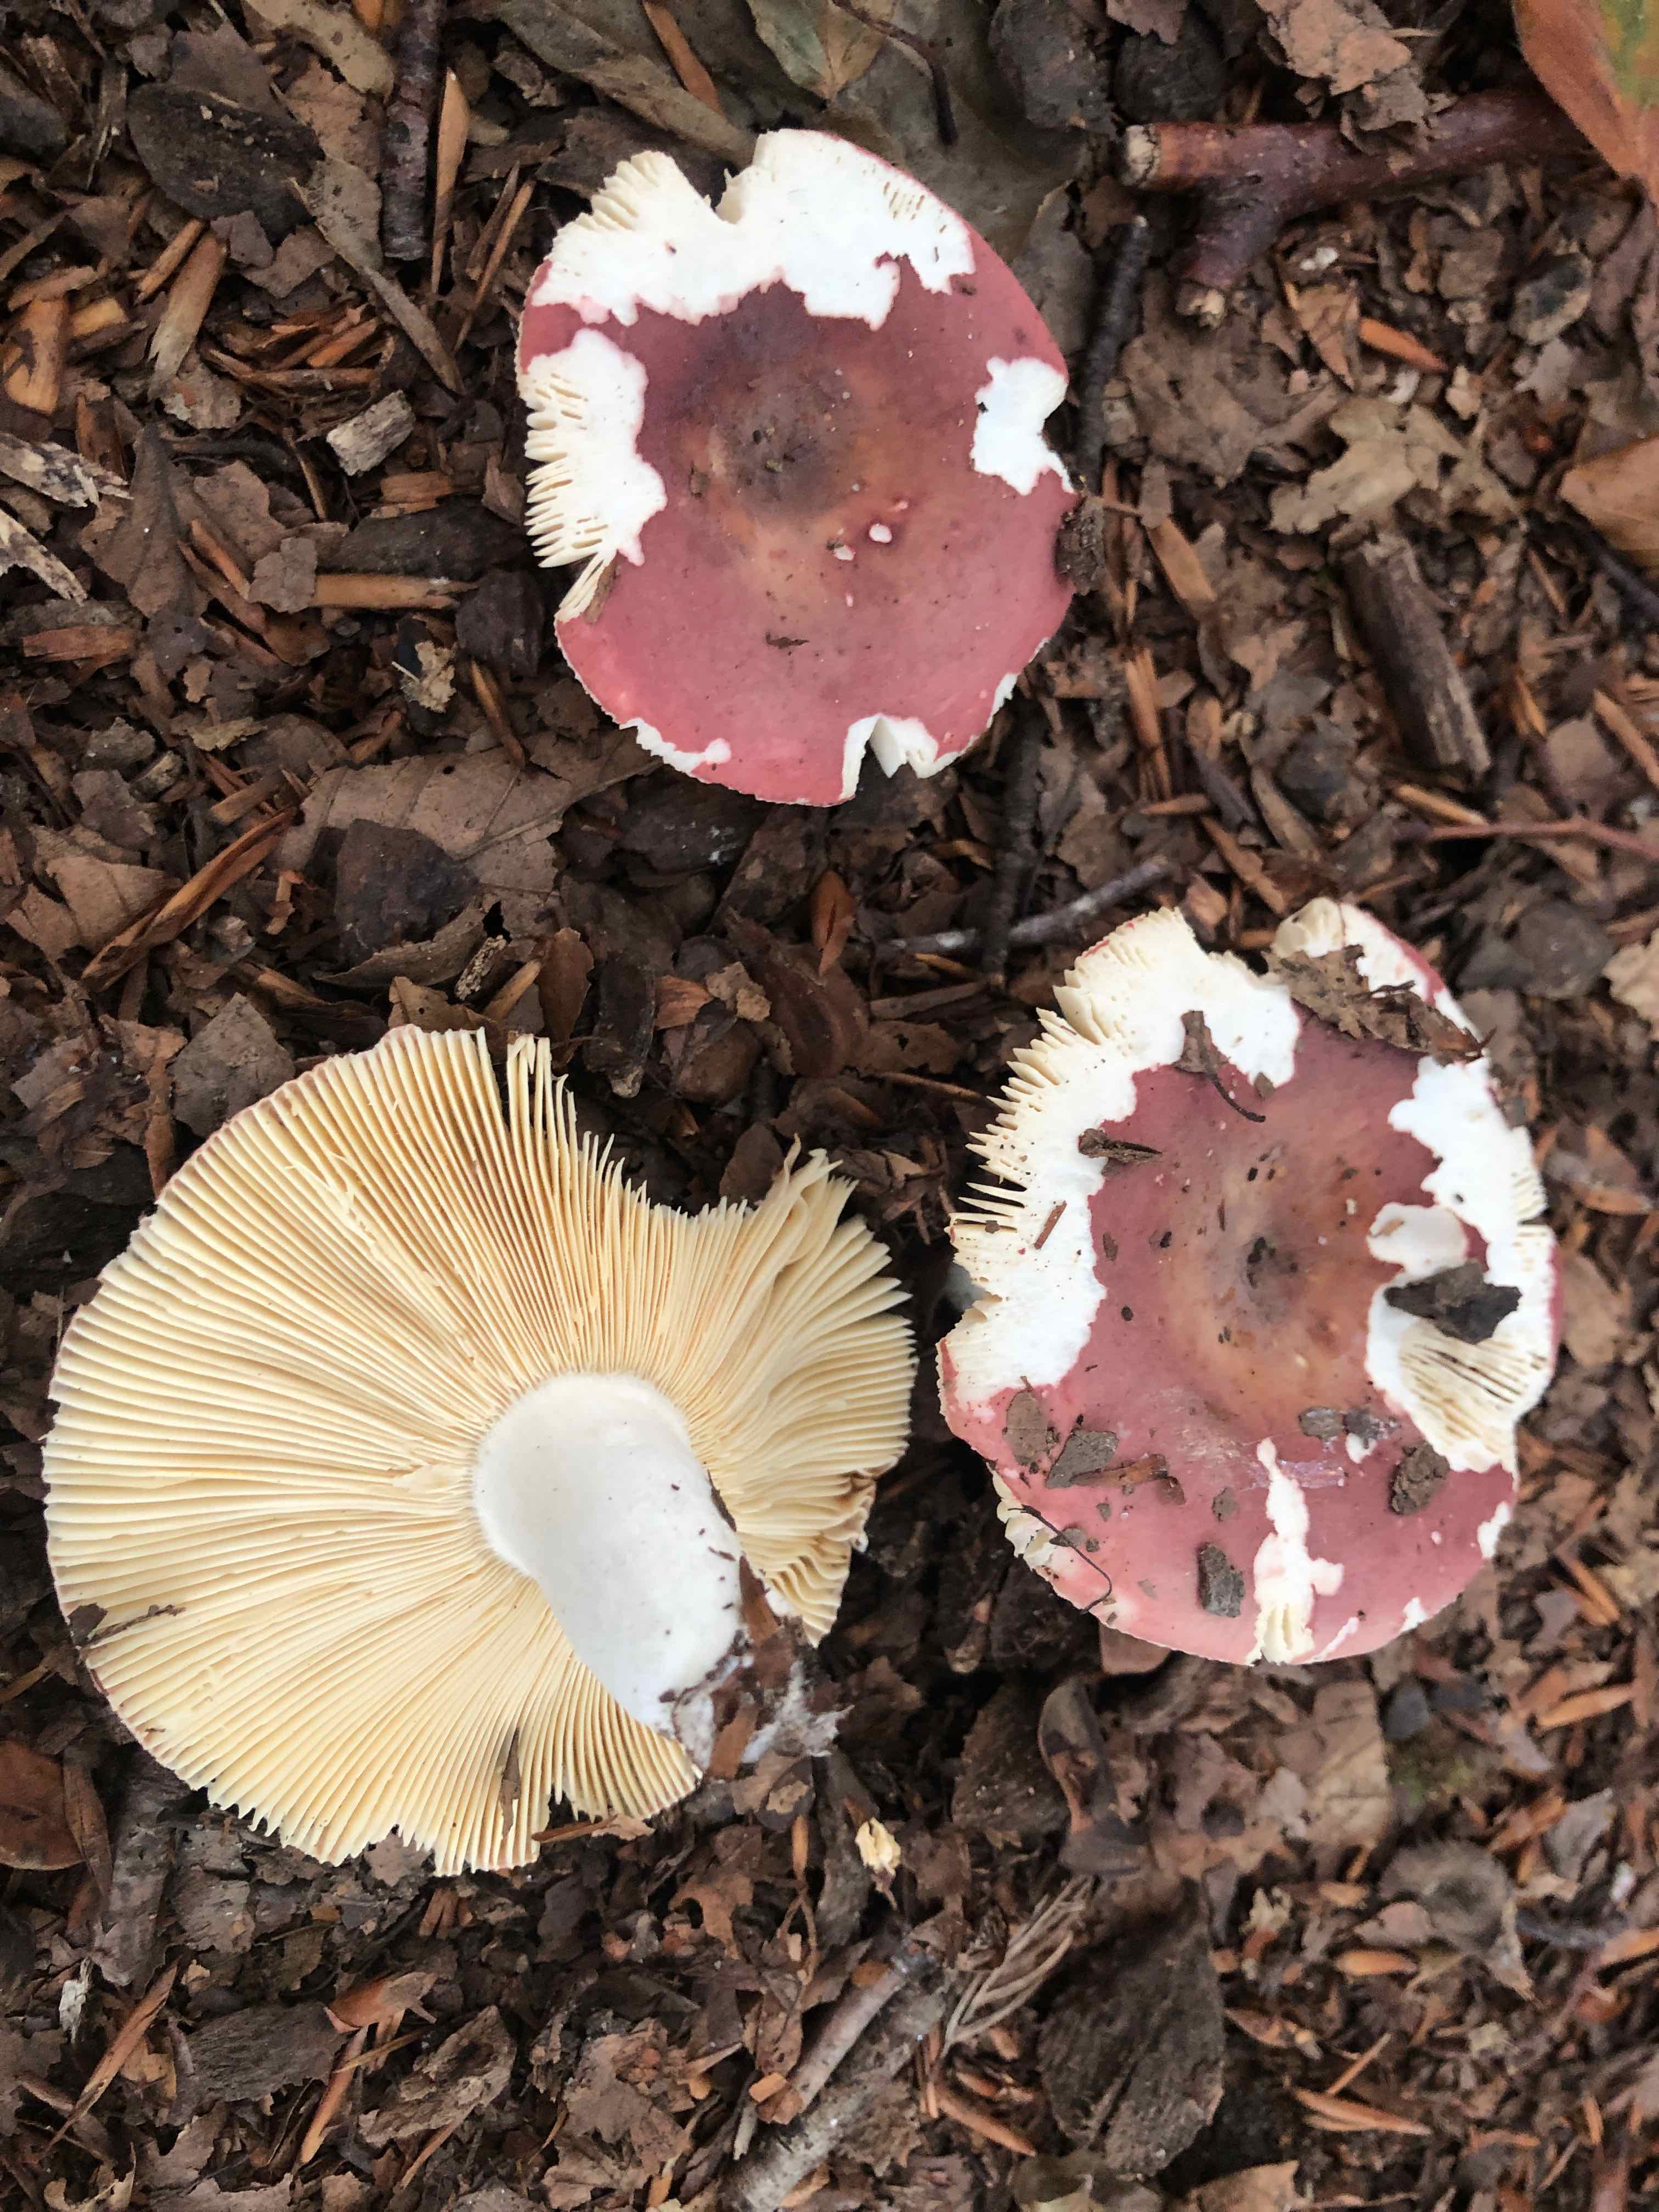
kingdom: Fungi
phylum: Basidiomycota
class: Agaricomycetes
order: Russulales
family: Russulaceae
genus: Russula
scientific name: Russula curtipes
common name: kortstokket skørhat
